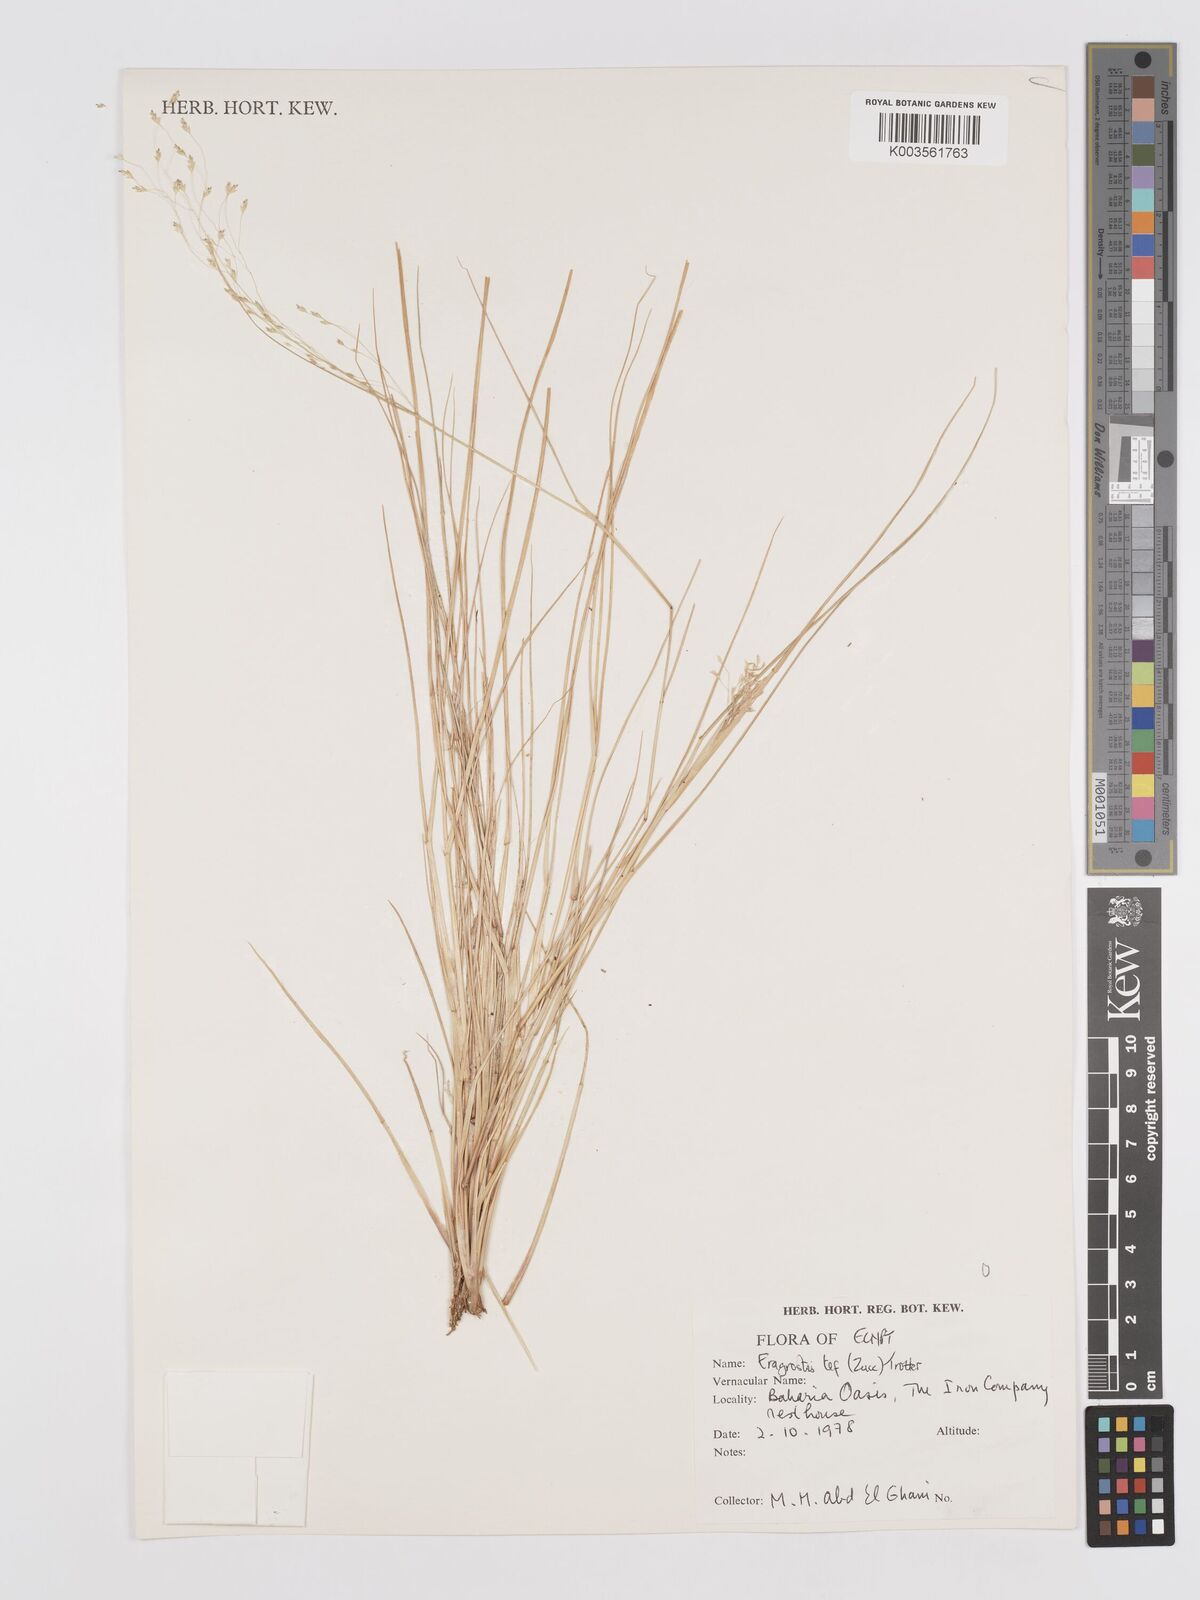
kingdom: Plantae
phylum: Tracheophyta
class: Liliopsida
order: Poales
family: Poaceae
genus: Eragrostis
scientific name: Eragrostis tef
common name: Teff
